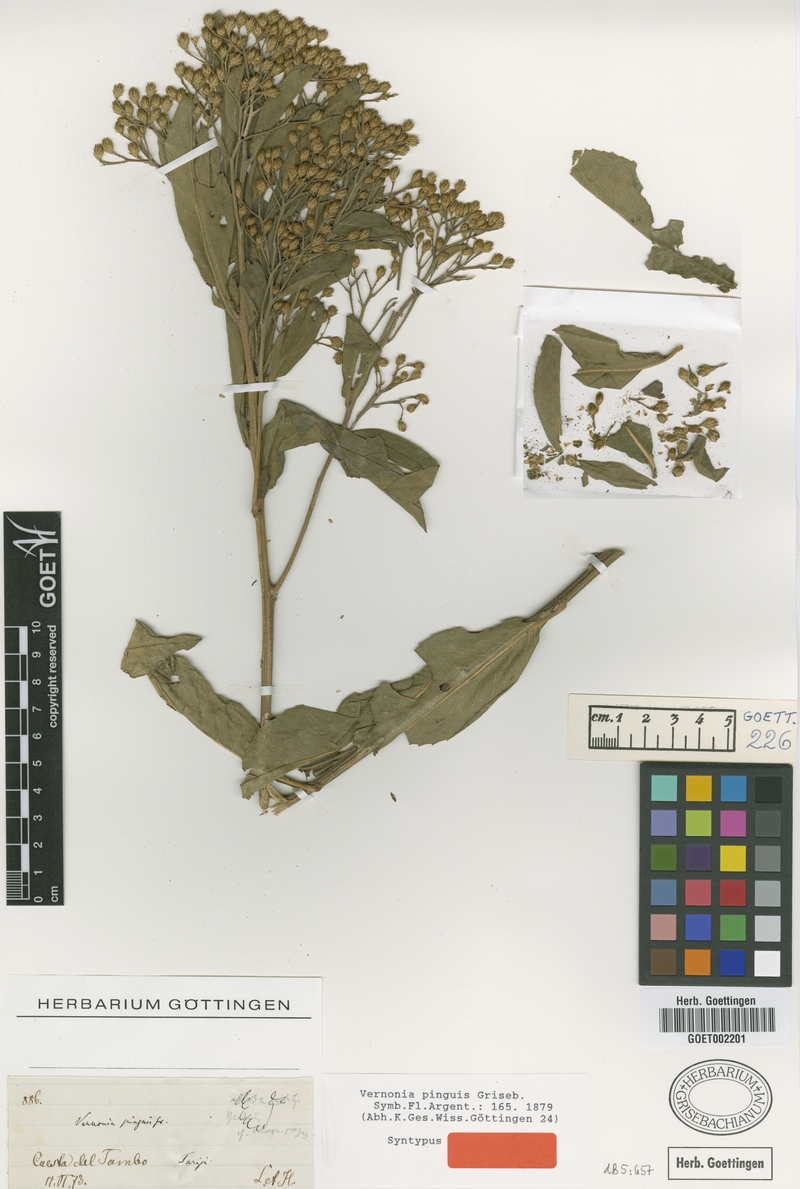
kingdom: Plantae
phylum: Tracheophyta
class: Magnoliopsida
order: Asterales
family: Asteraceae
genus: Vernonanthura
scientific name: Vernonanthura pinguis
